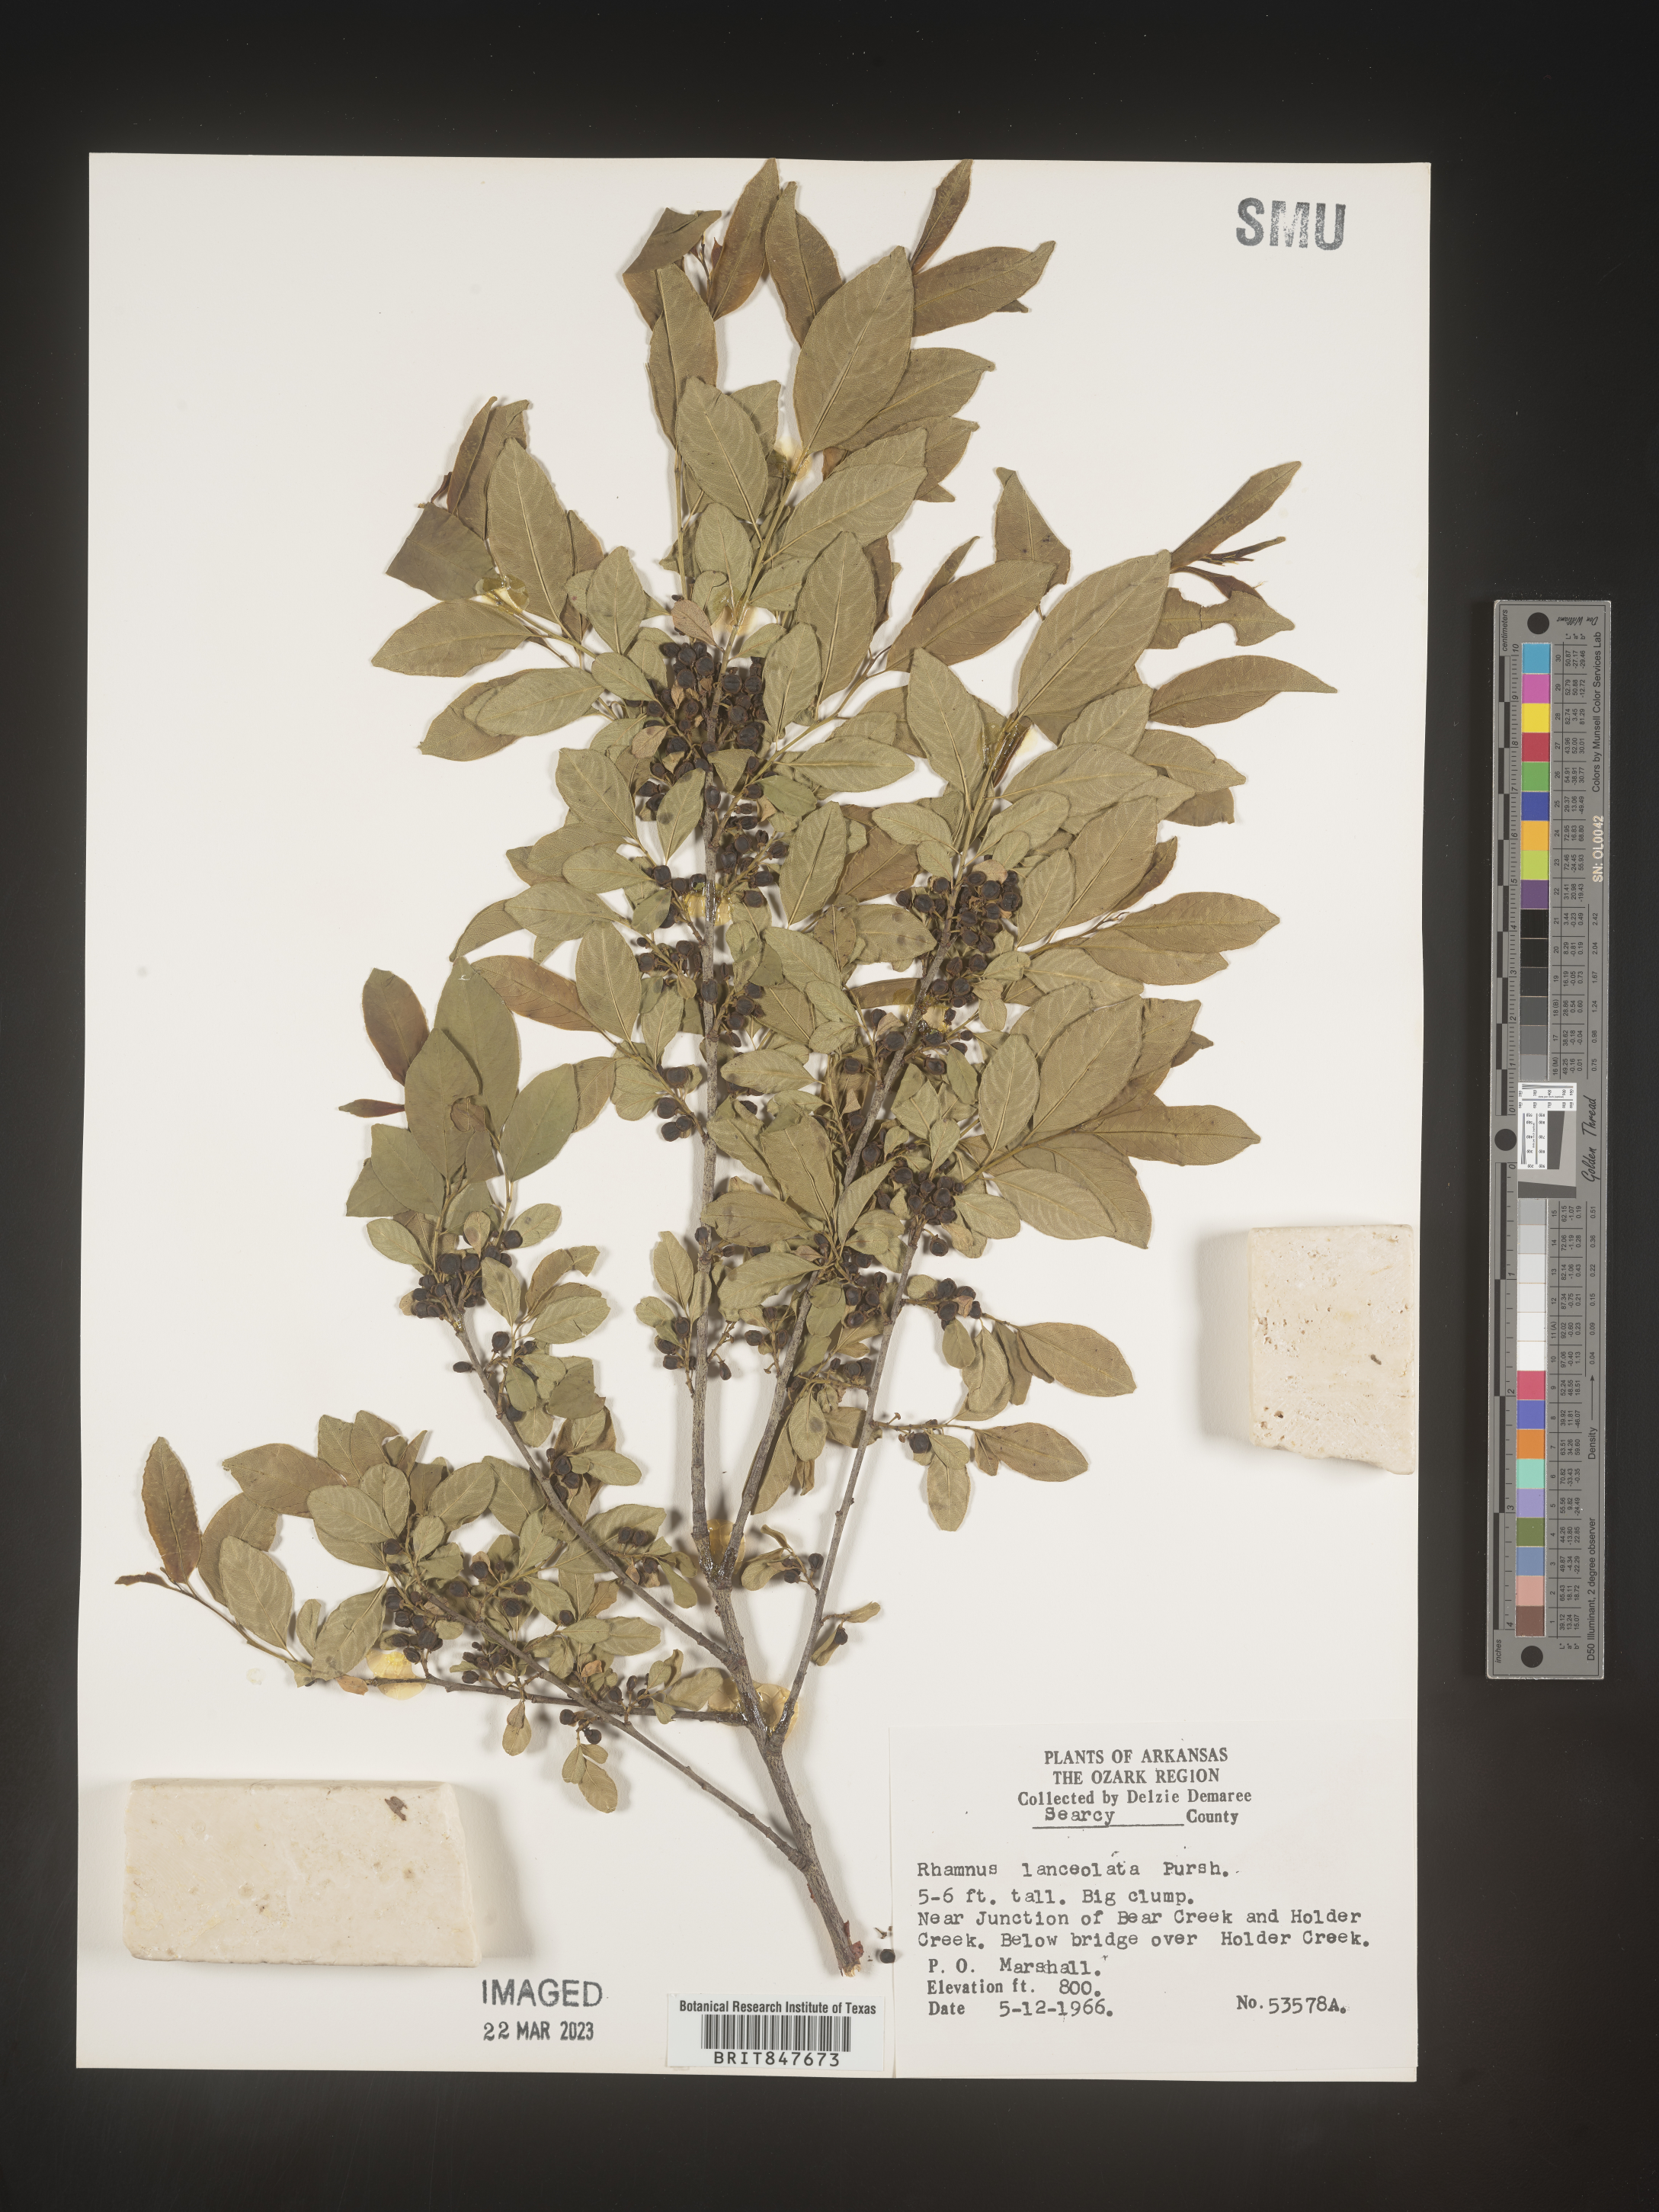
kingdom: Plantae
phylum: Tracheophyta
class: Magnoliopsida
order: Rosales
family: Rhamnaceae
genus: Endotropis
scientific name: Endotropis lanceolata
